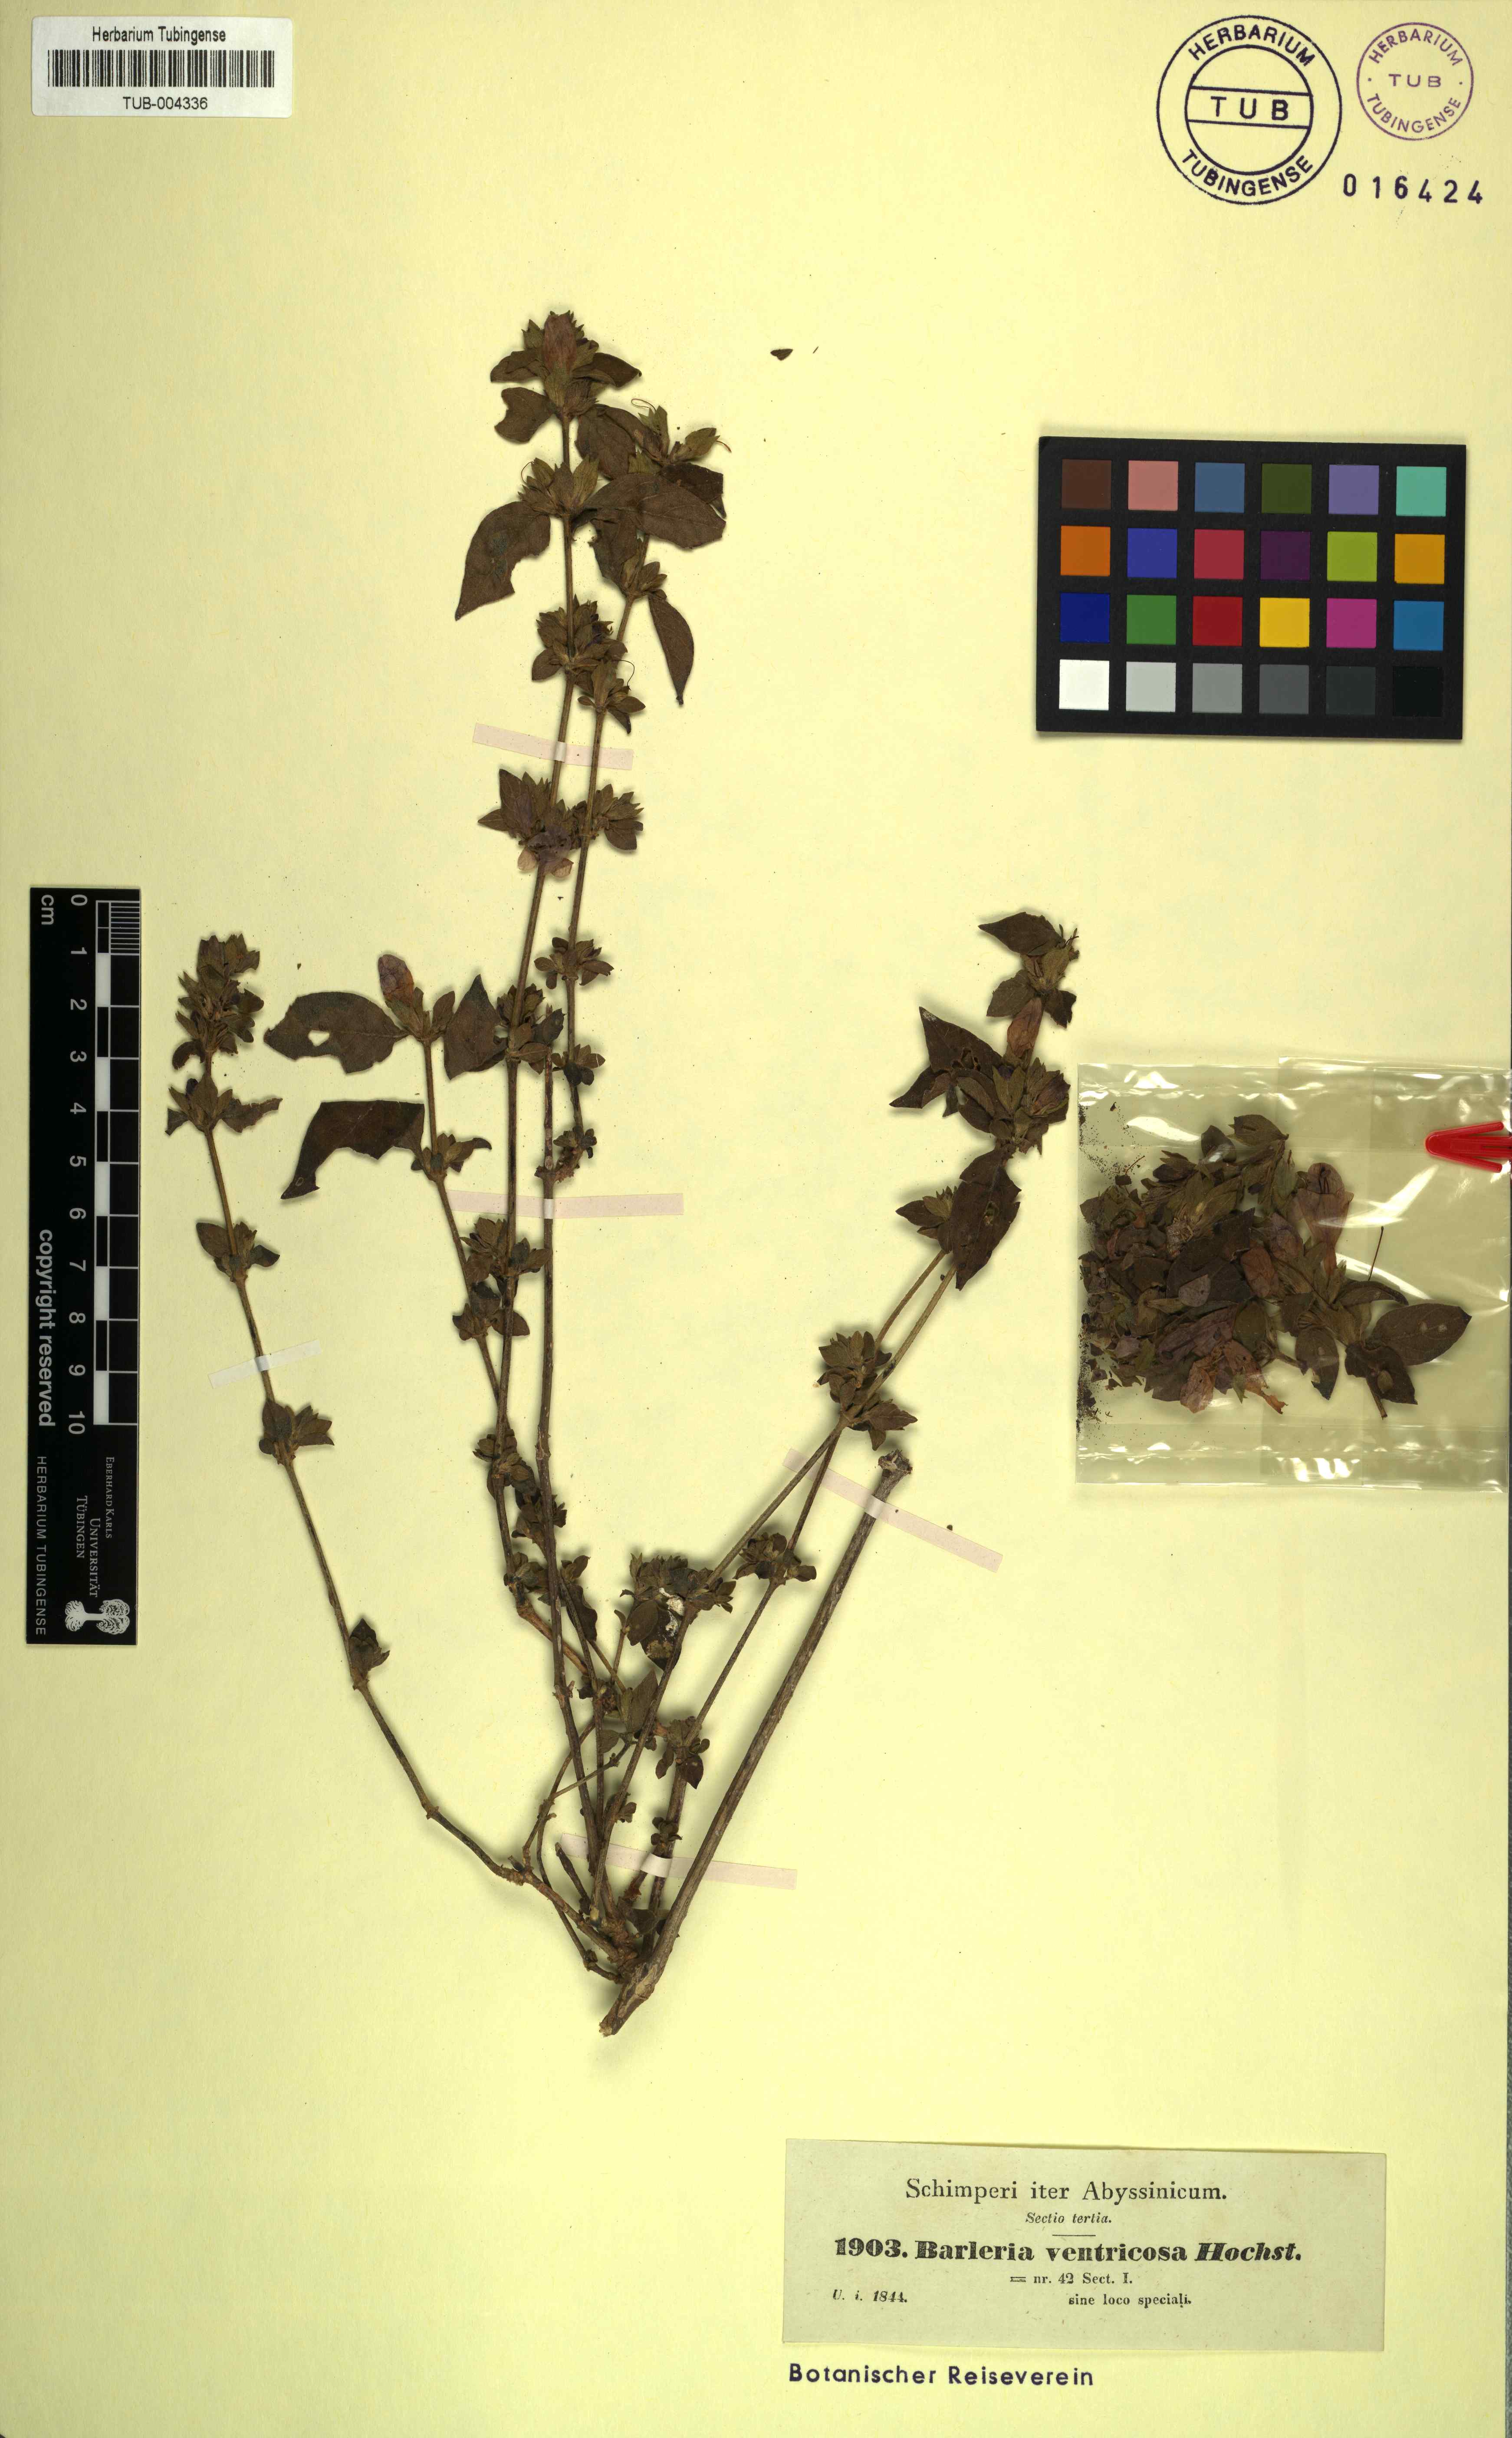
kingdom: Plantae
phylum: Tracheophyta
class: Magnoliopsida
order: Lamiales
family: Acanthaceae
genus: Barleria
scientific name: Barleria ventricosa
